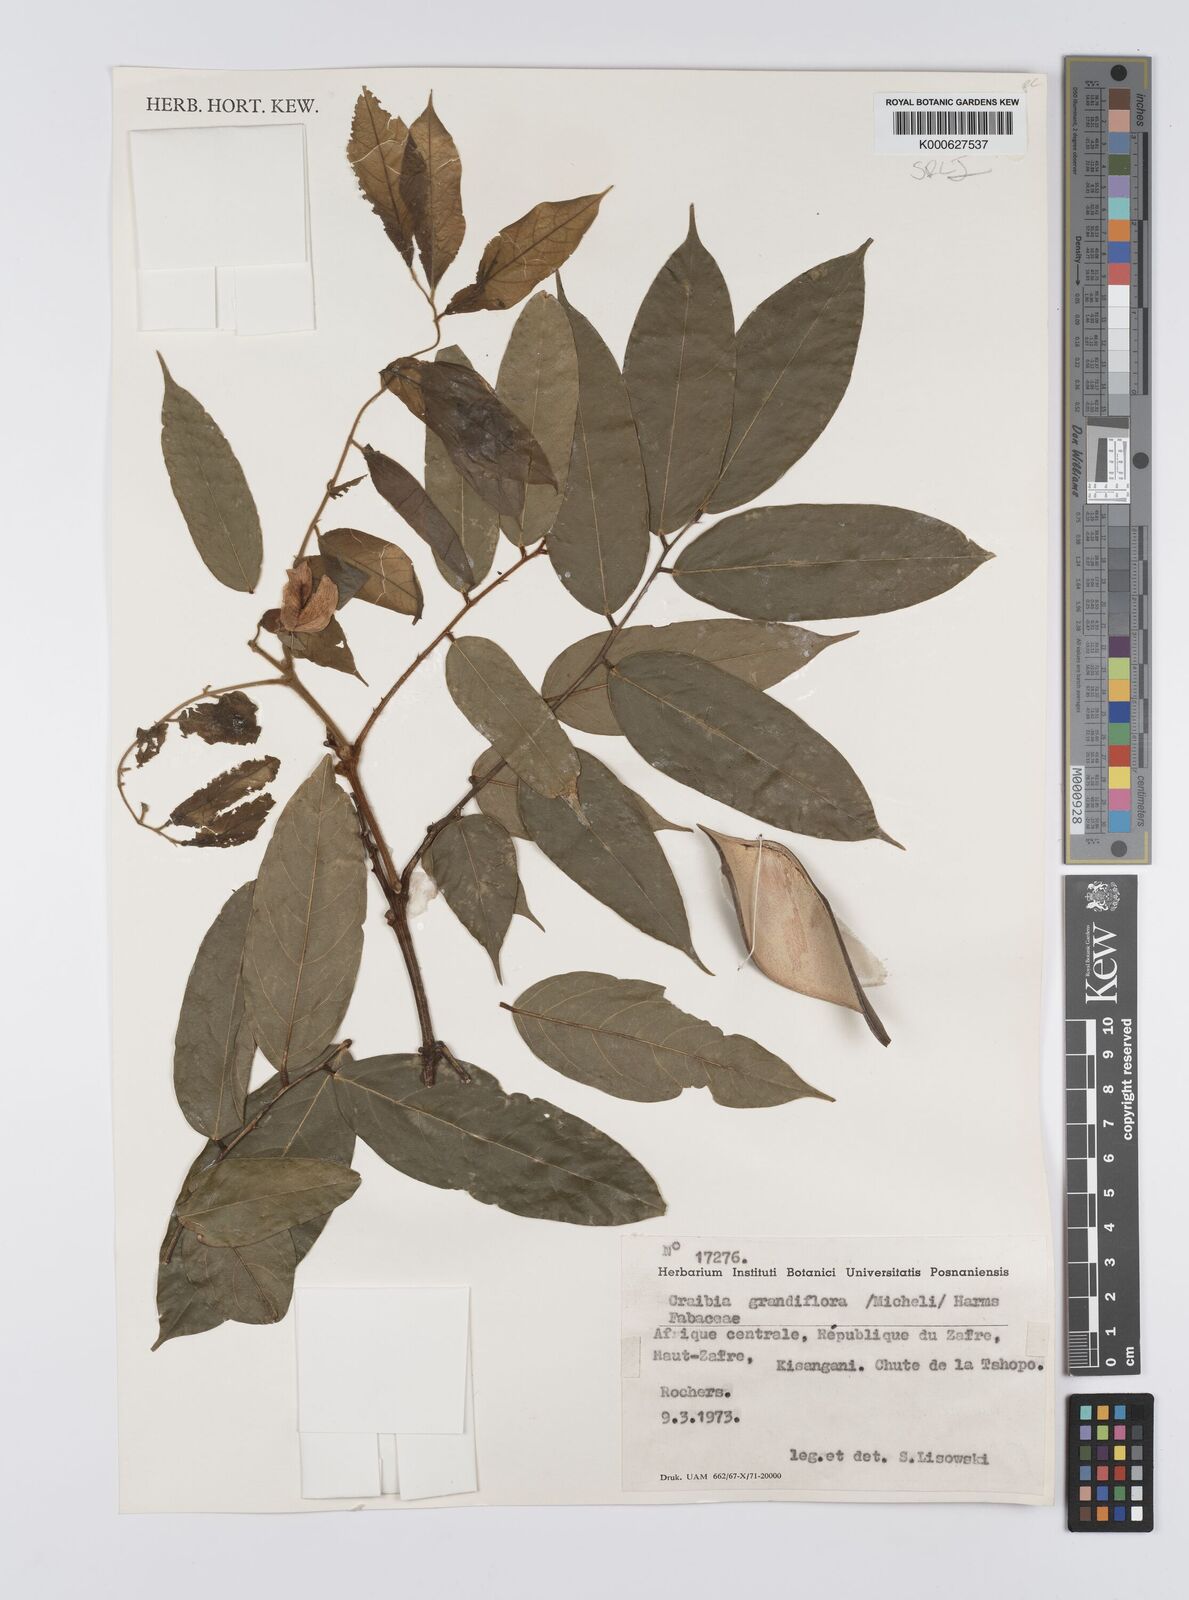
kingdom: Plantae
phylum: Tracheophyta
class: Magnoliopsida
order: Fabales
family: Fabaceae
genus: Craibia
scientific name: Craibia grandiflora
